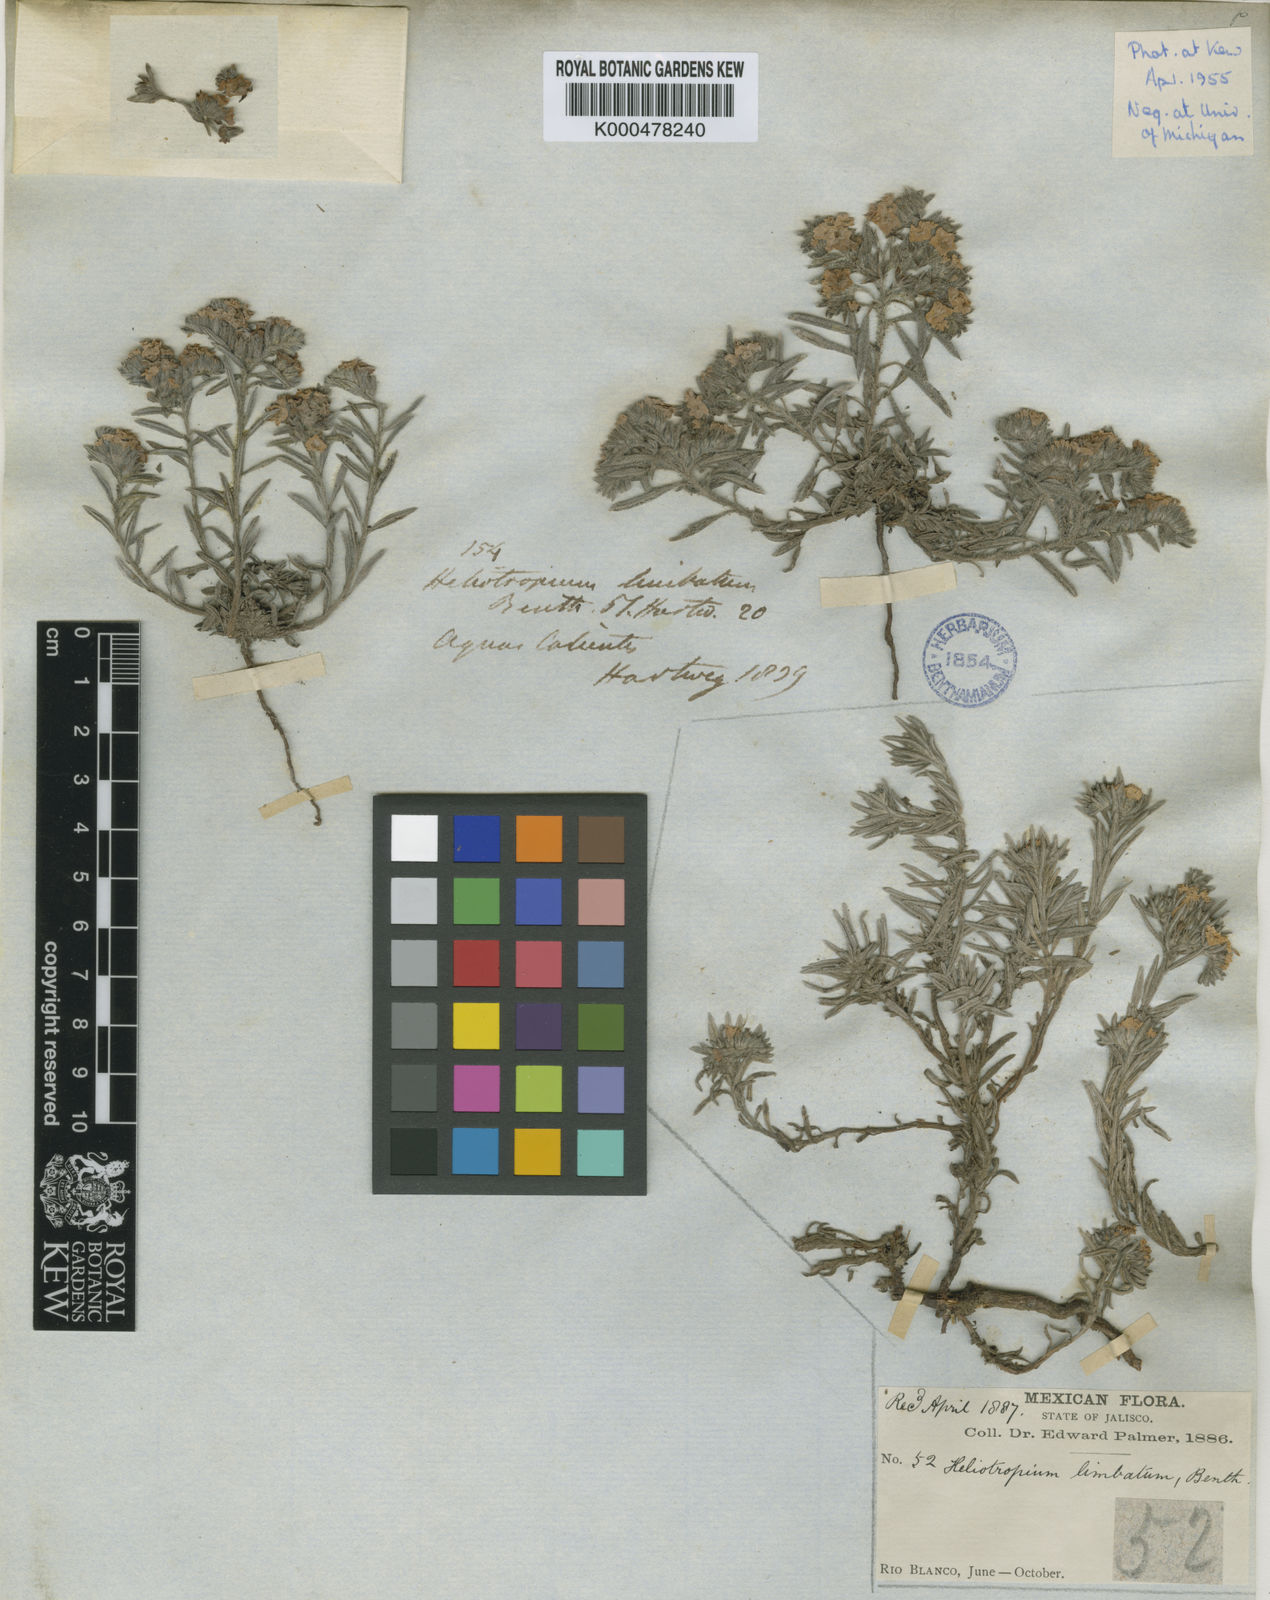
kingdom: Plantae
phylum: Tracheophyta
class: Magnoliopsida
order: Boraginales
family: Heliotropiaceae
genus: Euploca
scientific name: Euploca limbata
